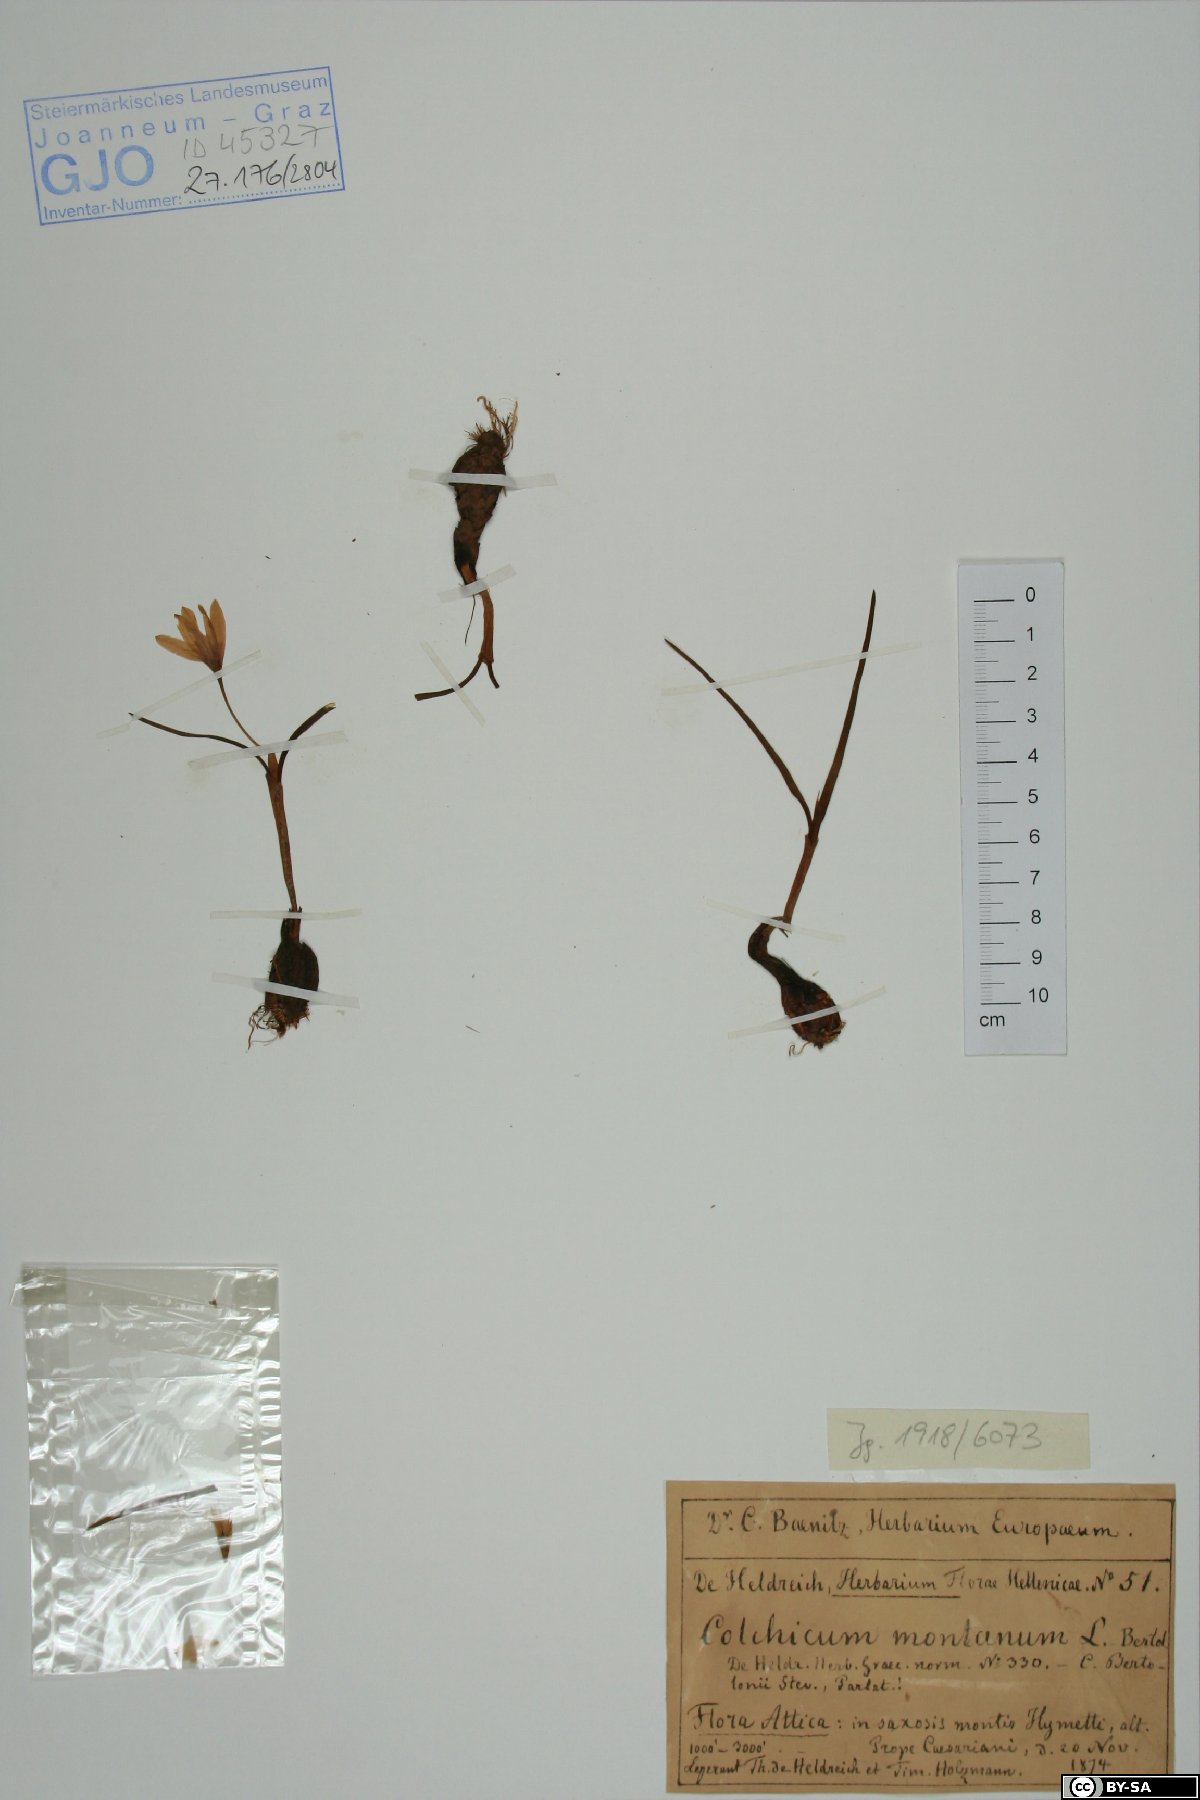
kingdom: Plantae
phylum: Tracheophyta
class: Liliopsida
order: Liliales
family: Colchicaceae
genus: Colchicum
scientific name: Colchicum montanum
